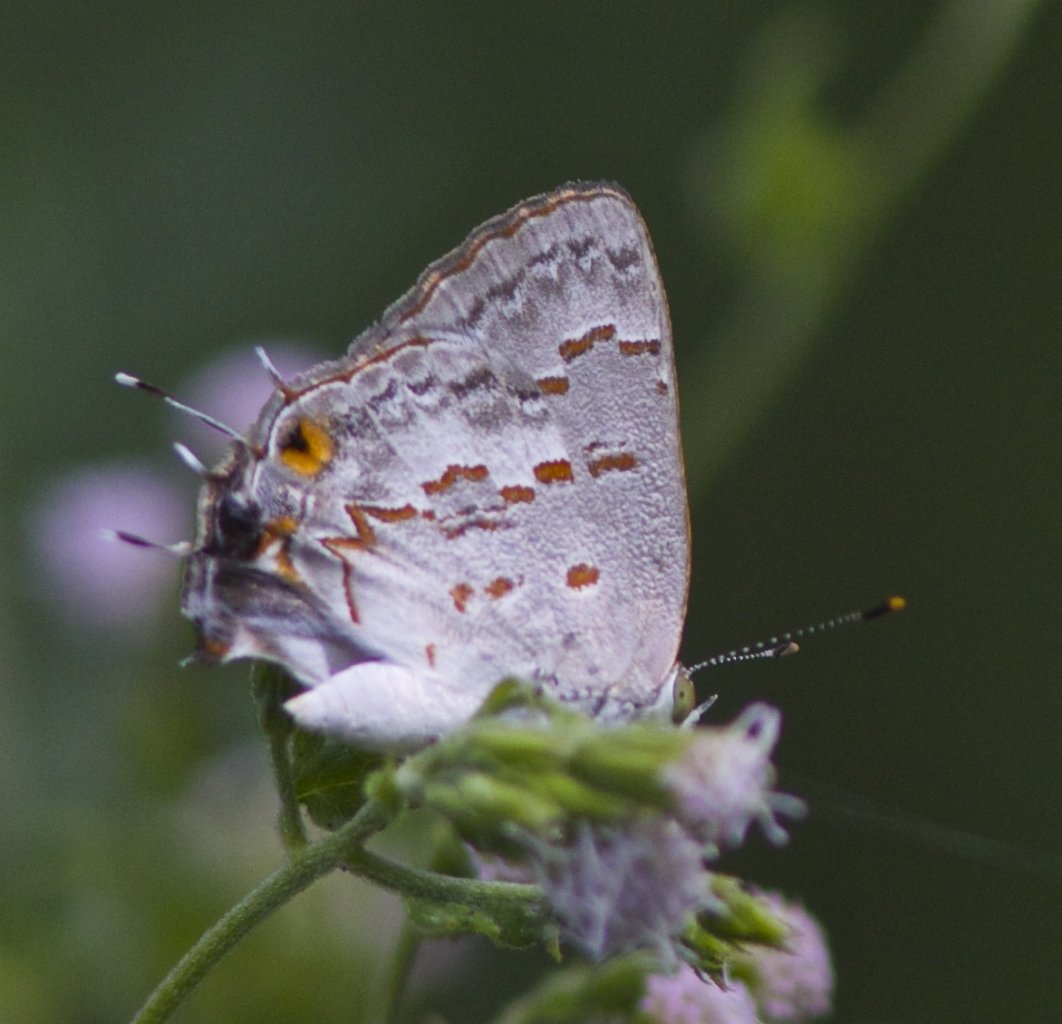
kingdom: Animalia
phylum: Arthropoda
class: Insecta
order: Lepidoptera
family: Lycaenidae
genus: Ministrymon
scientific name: Ministrymon clytie
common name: Clytie Ministreak
